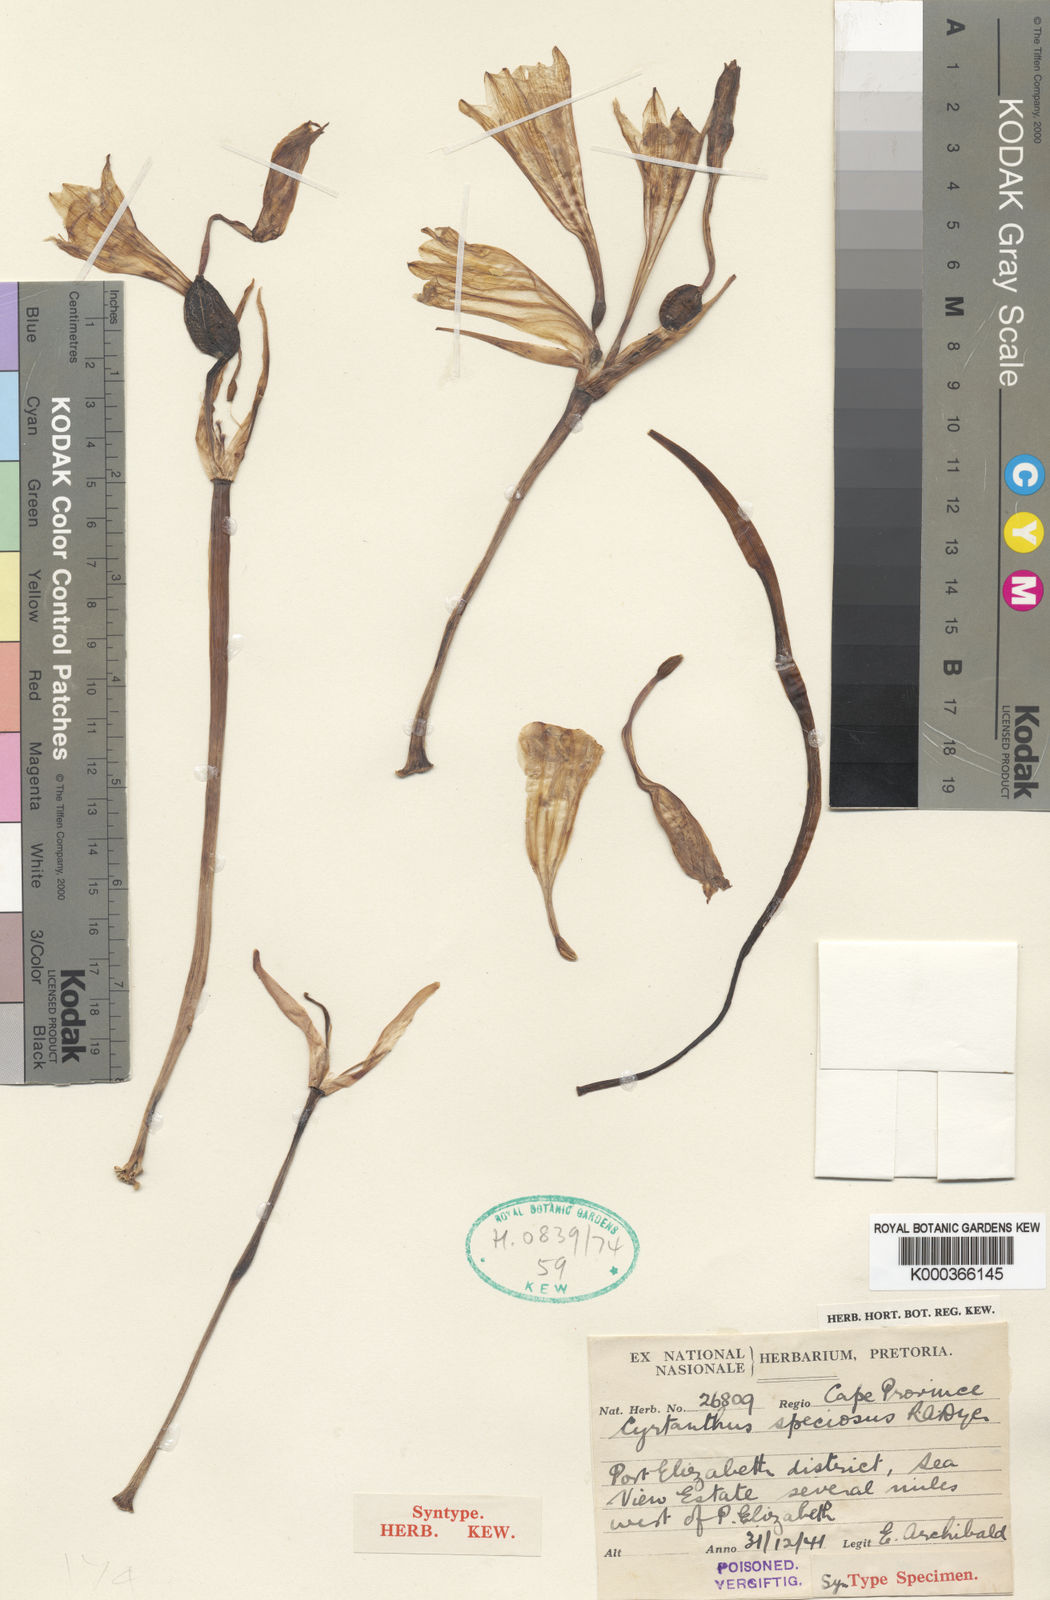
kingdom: Plantae
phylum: Tracheophyta
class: Liliopsida
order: Asparagales
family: Amaryllidaceae
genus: Cyrtanthus
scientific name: Cyrtanthus loddigesianus
